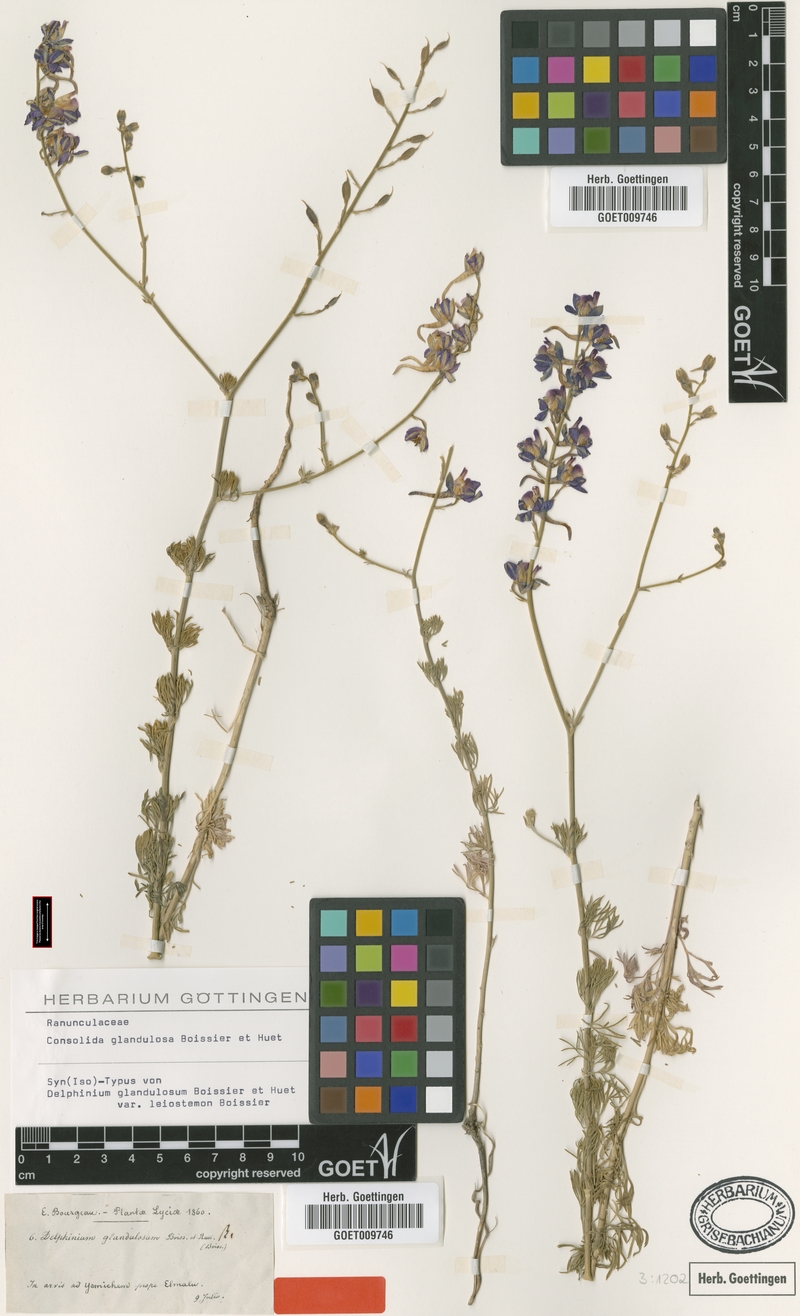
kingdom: Plantae
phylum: Tracheophyta
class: Magnoliopsida
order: Ranunculales
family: Ranunculaceae
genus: Delphinium
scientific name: Delphinium glandulosum
